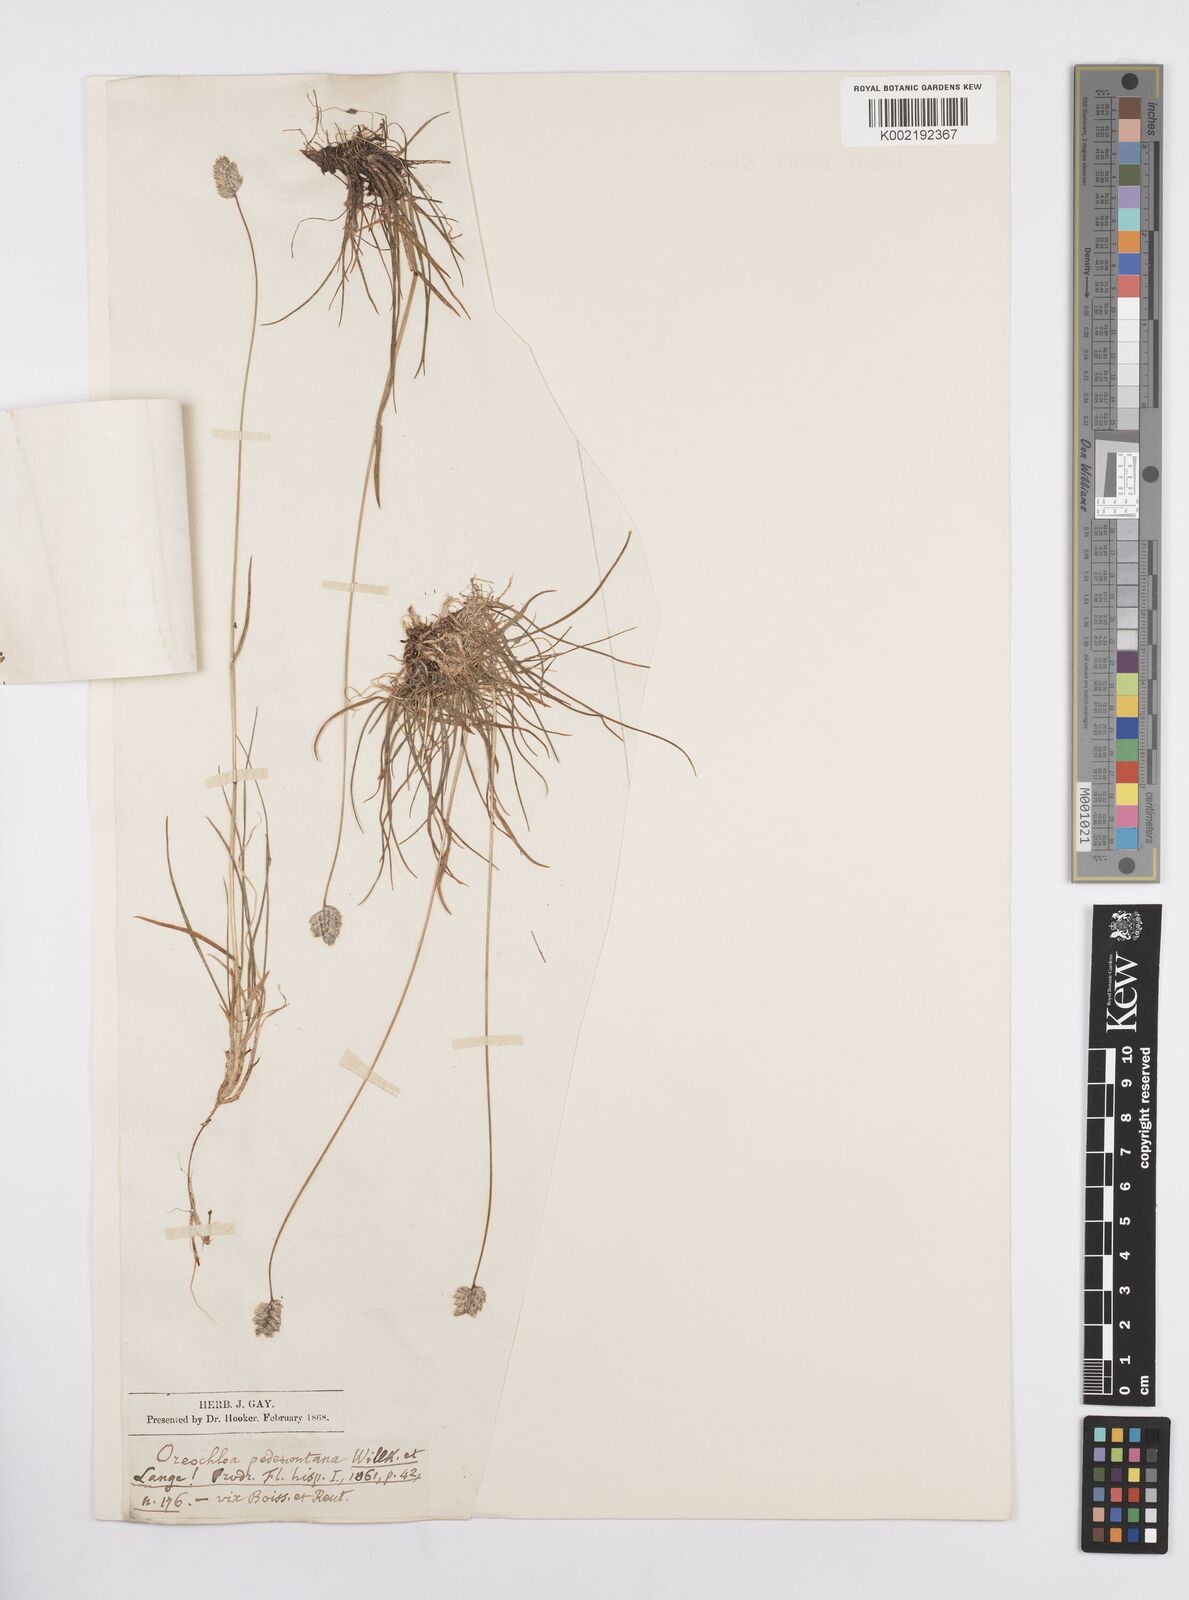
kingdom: Plantae
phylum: Tracheophyta
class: Liliopsida
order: Poales
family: Poaceae
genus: Oreochloa
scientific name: Oreochloa seslerioides
